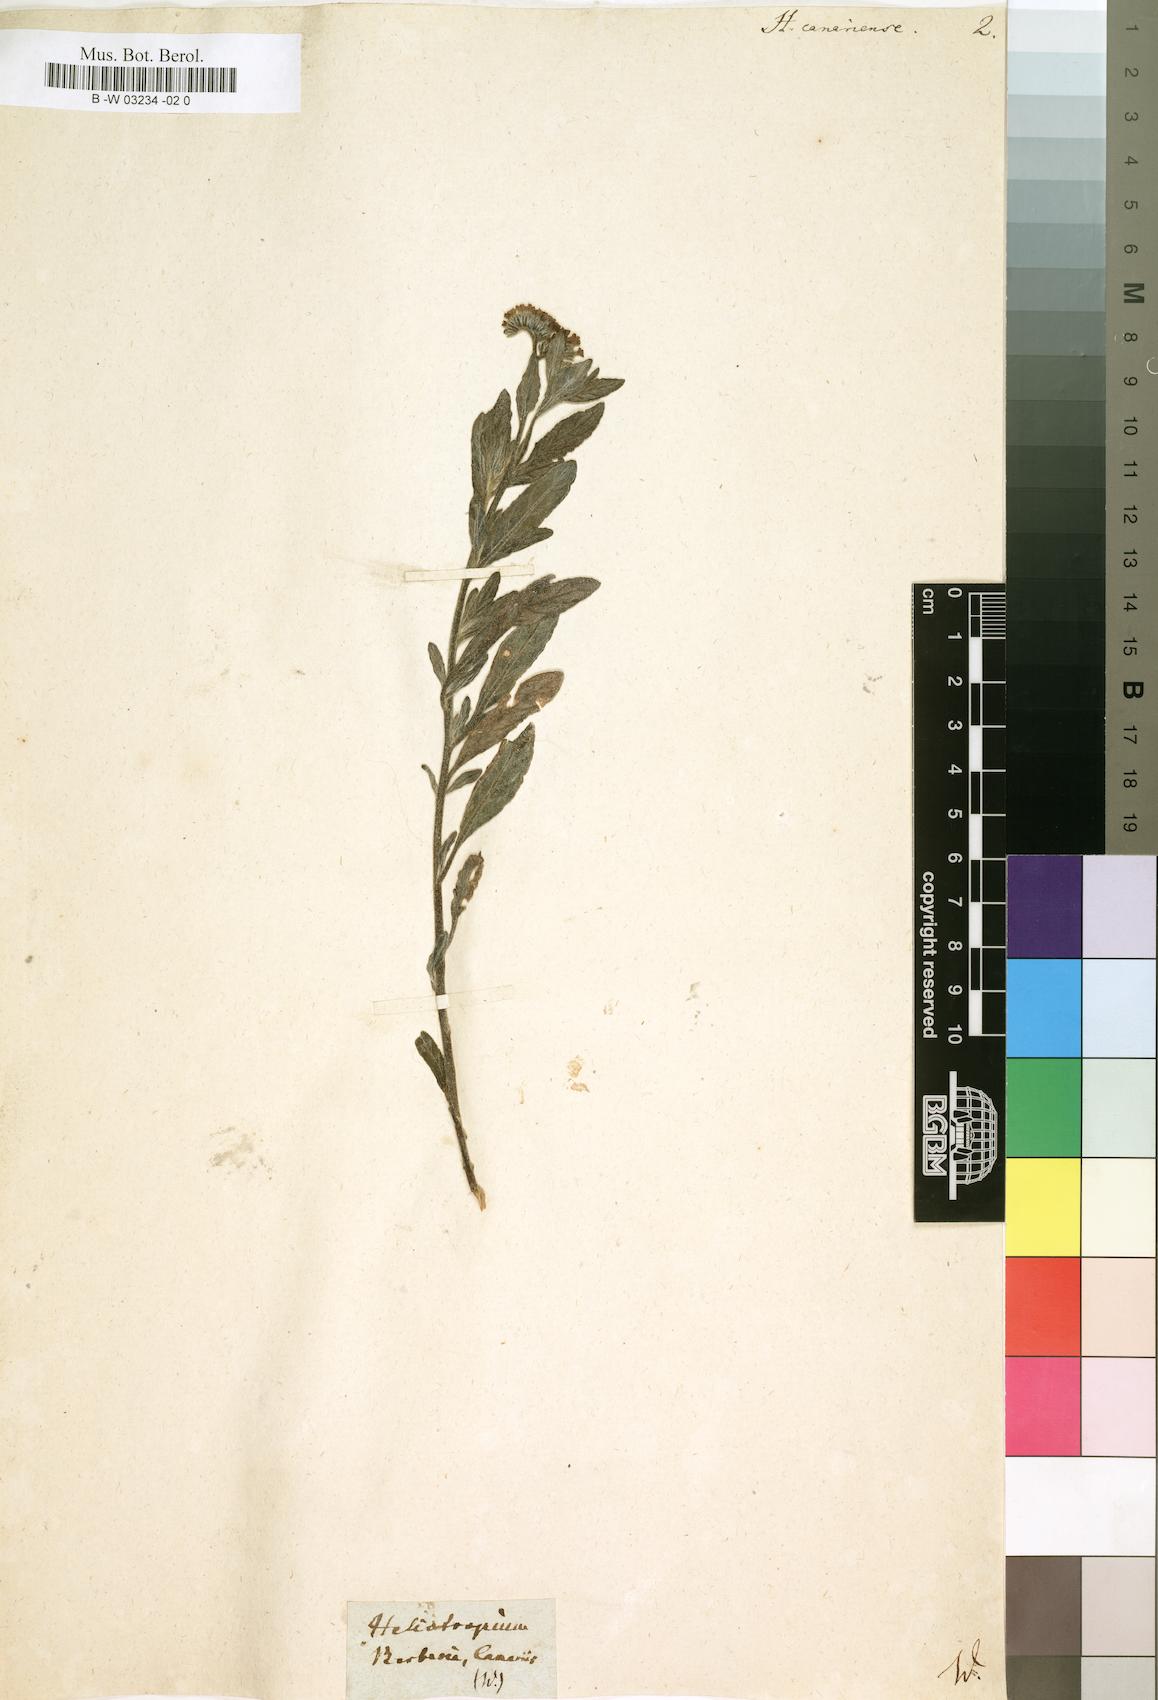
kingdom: Plantae
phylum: Tracheophyta
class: Magnoliopsida
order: Boraginales
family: Heliotropiaceae
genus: Heliotropium
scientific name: Heliotropium crispum
